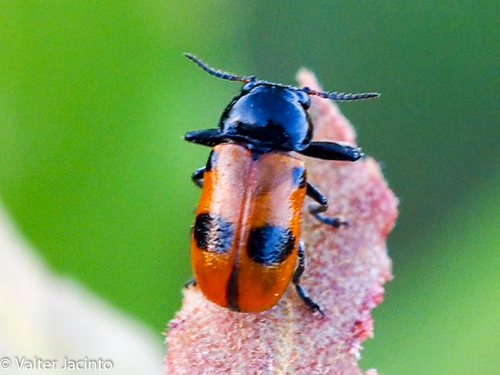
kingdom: Animalia
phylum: Arthropoda
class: Insecta
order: Coleoptera
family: Chrysomelidae
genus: Labidostomis
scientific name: Labidostomis ghilianii
